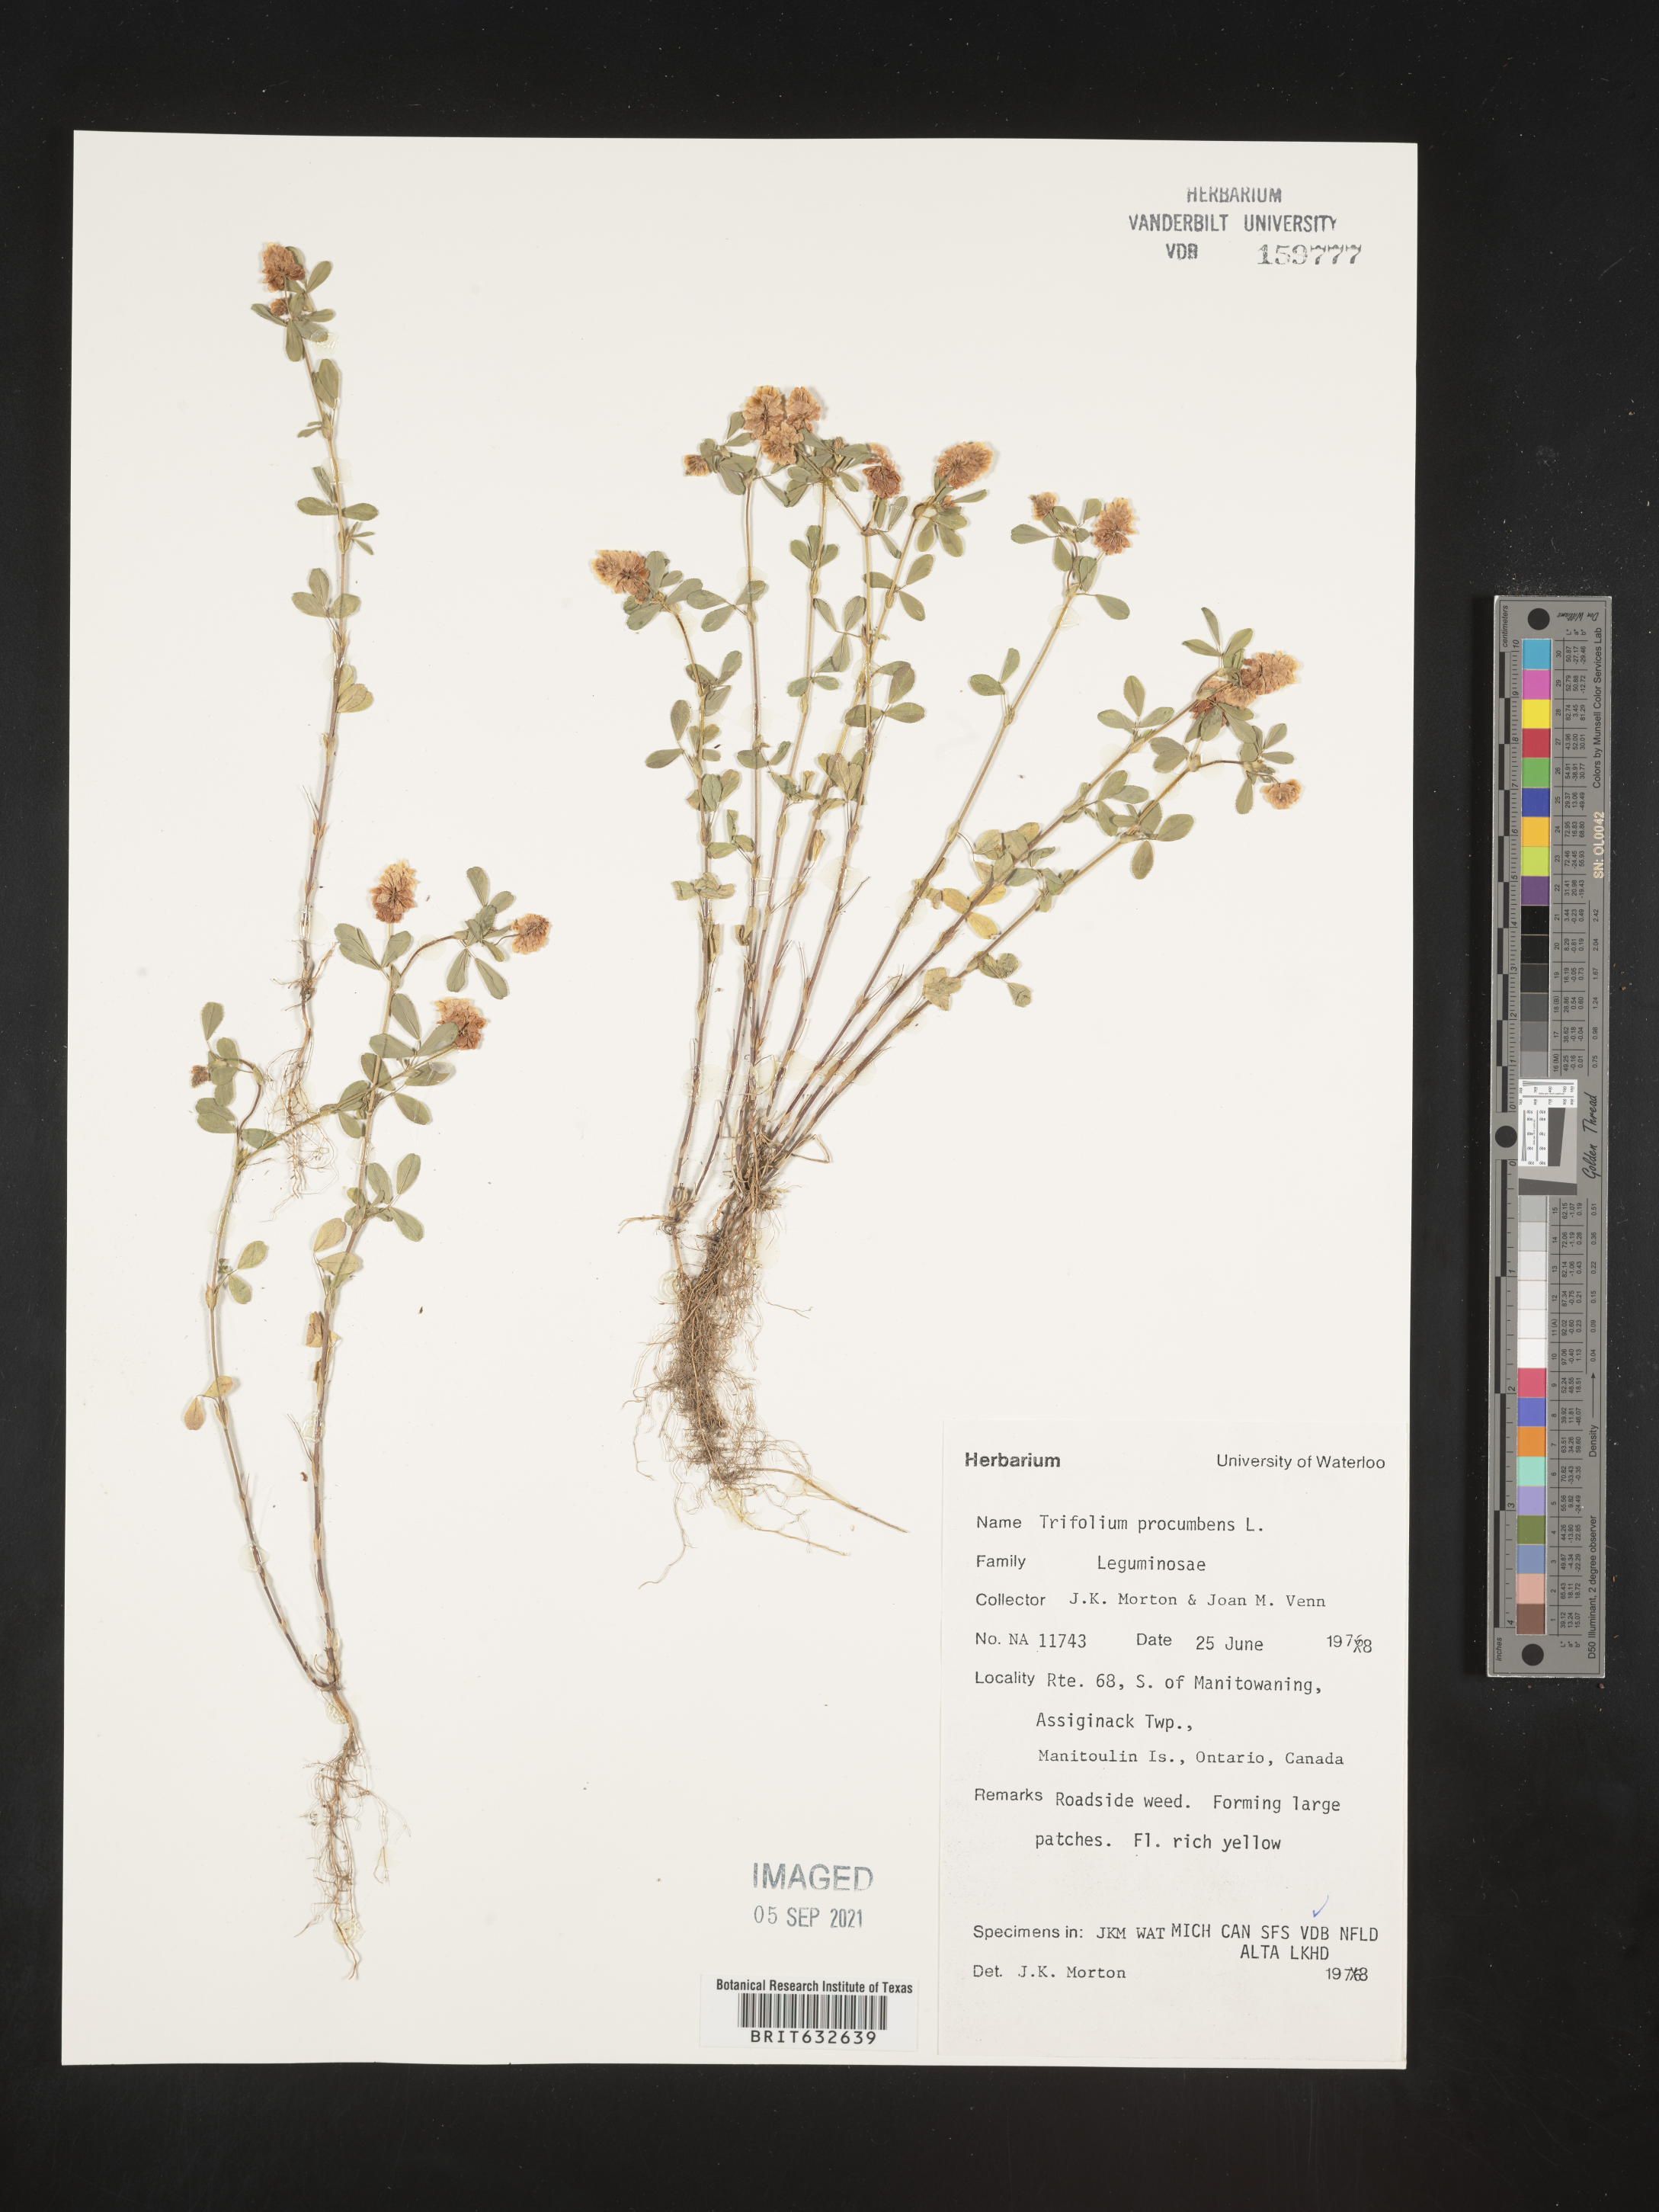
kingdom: Plantae
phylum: Tracheophyta
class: Magnoliopsida
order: Fabales
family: Fabaceae
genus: Trifolium
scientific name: Trifolium
